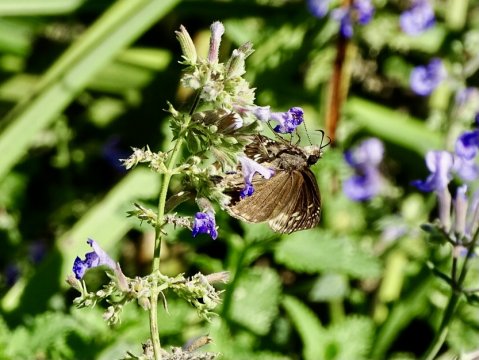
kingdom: Animalia
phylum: Arthropoda
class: Insecta
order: Lepidoptera
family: Hesperiidae
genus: Gesta
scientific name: Gesta
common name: Horace's Duskywing
